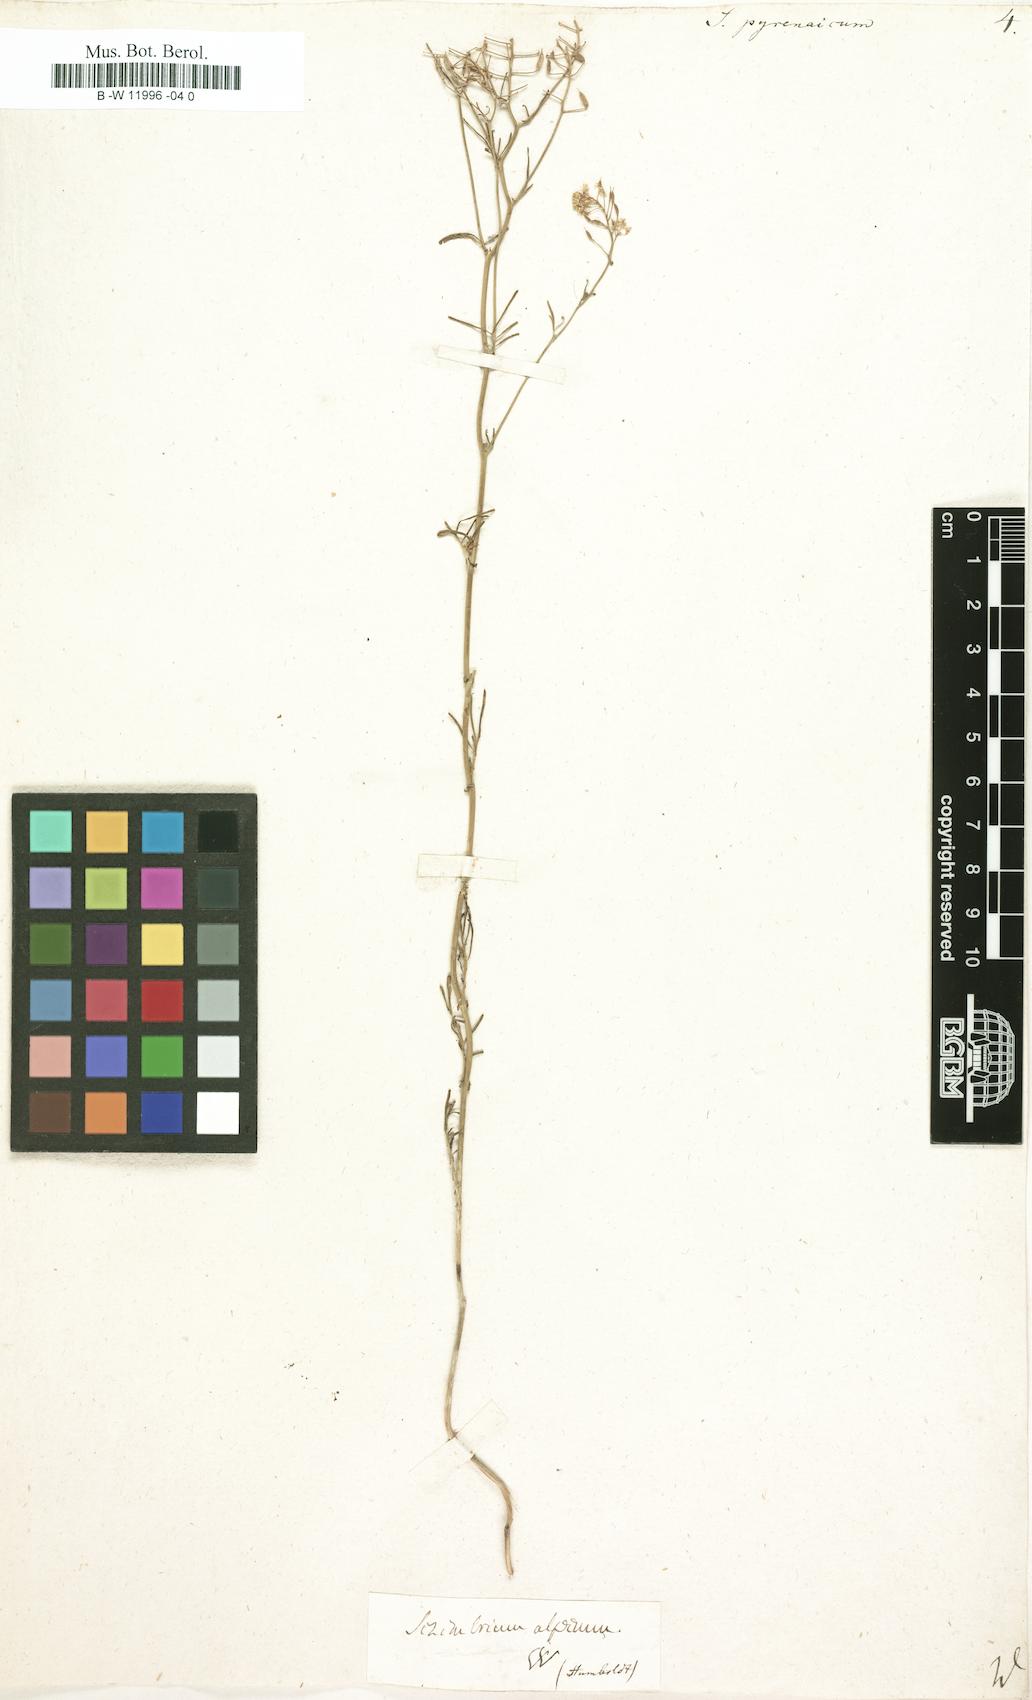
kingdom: Plantae
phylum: Tracheophyta
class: Magnoliopsida
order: Brassicales
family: Brassicaceae
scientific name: Brassicaceae
